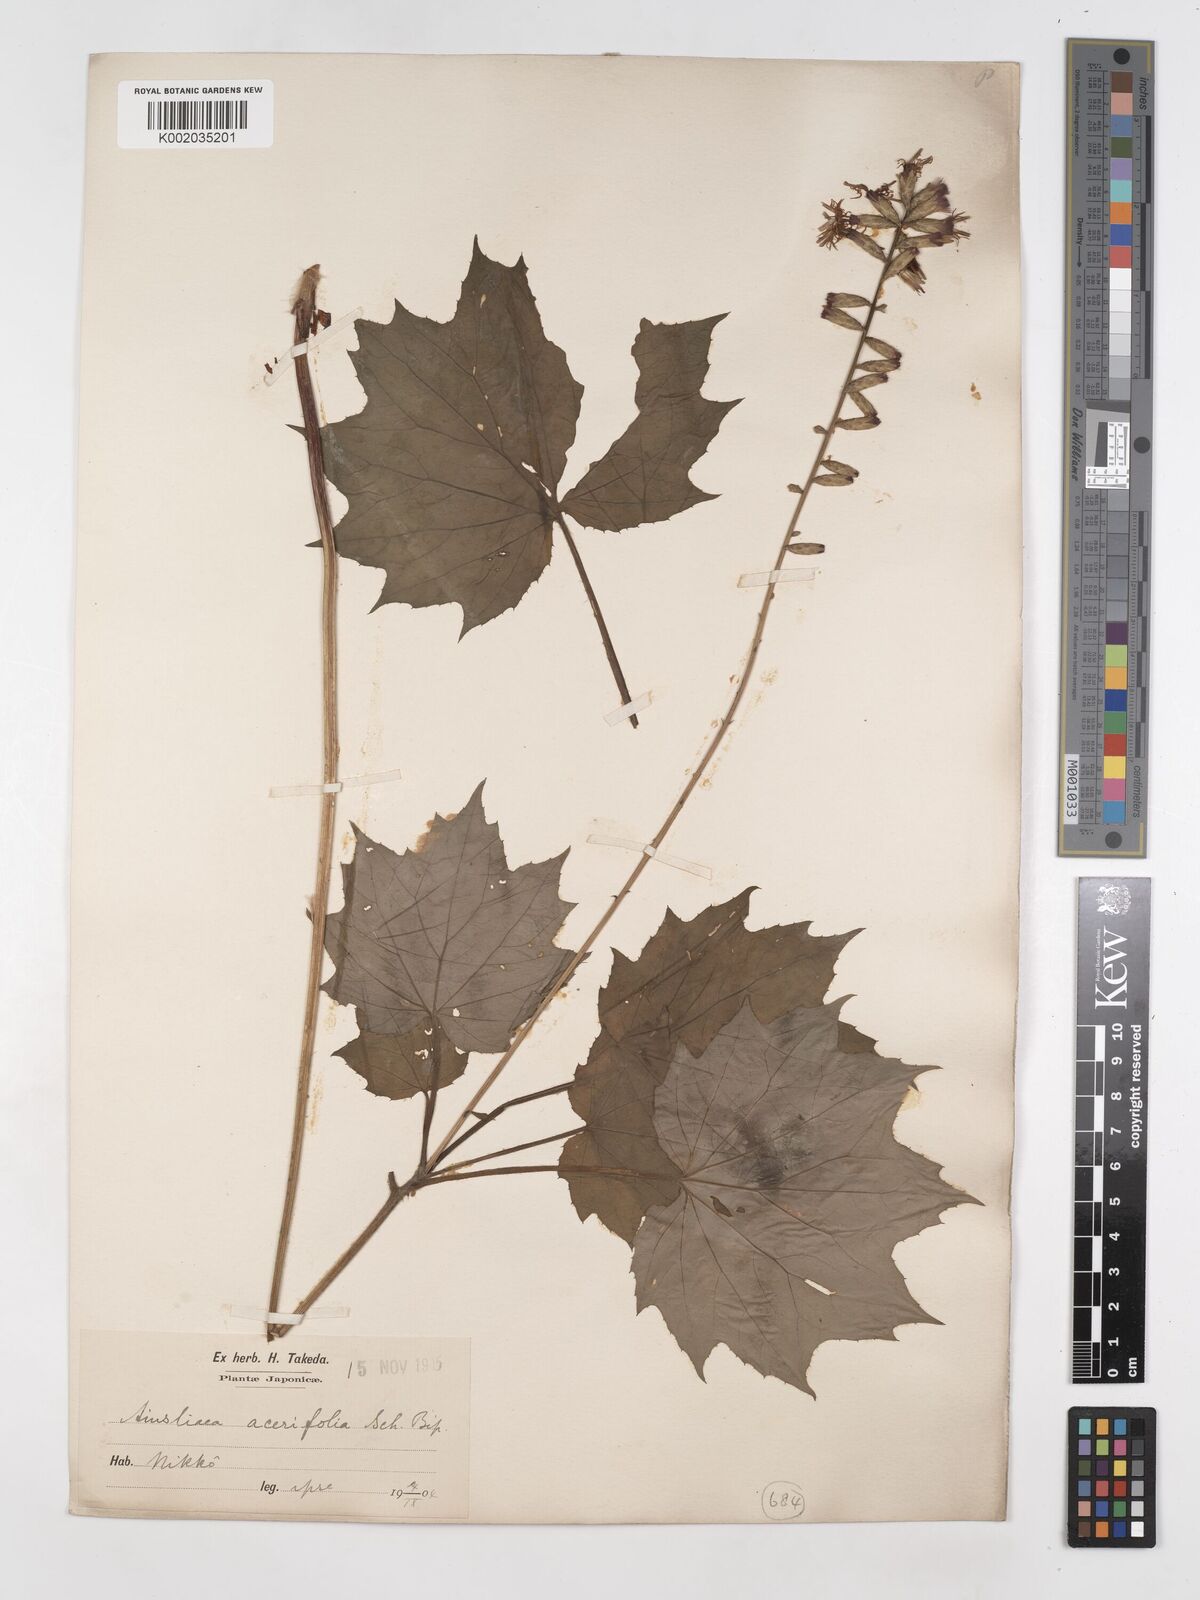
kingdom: Plantae
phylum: Tracheophyta
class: Magnoliopsida
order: Asterales
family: Asteraceae
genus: Ainsliaea
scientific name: Ainsliaea acerifolia
